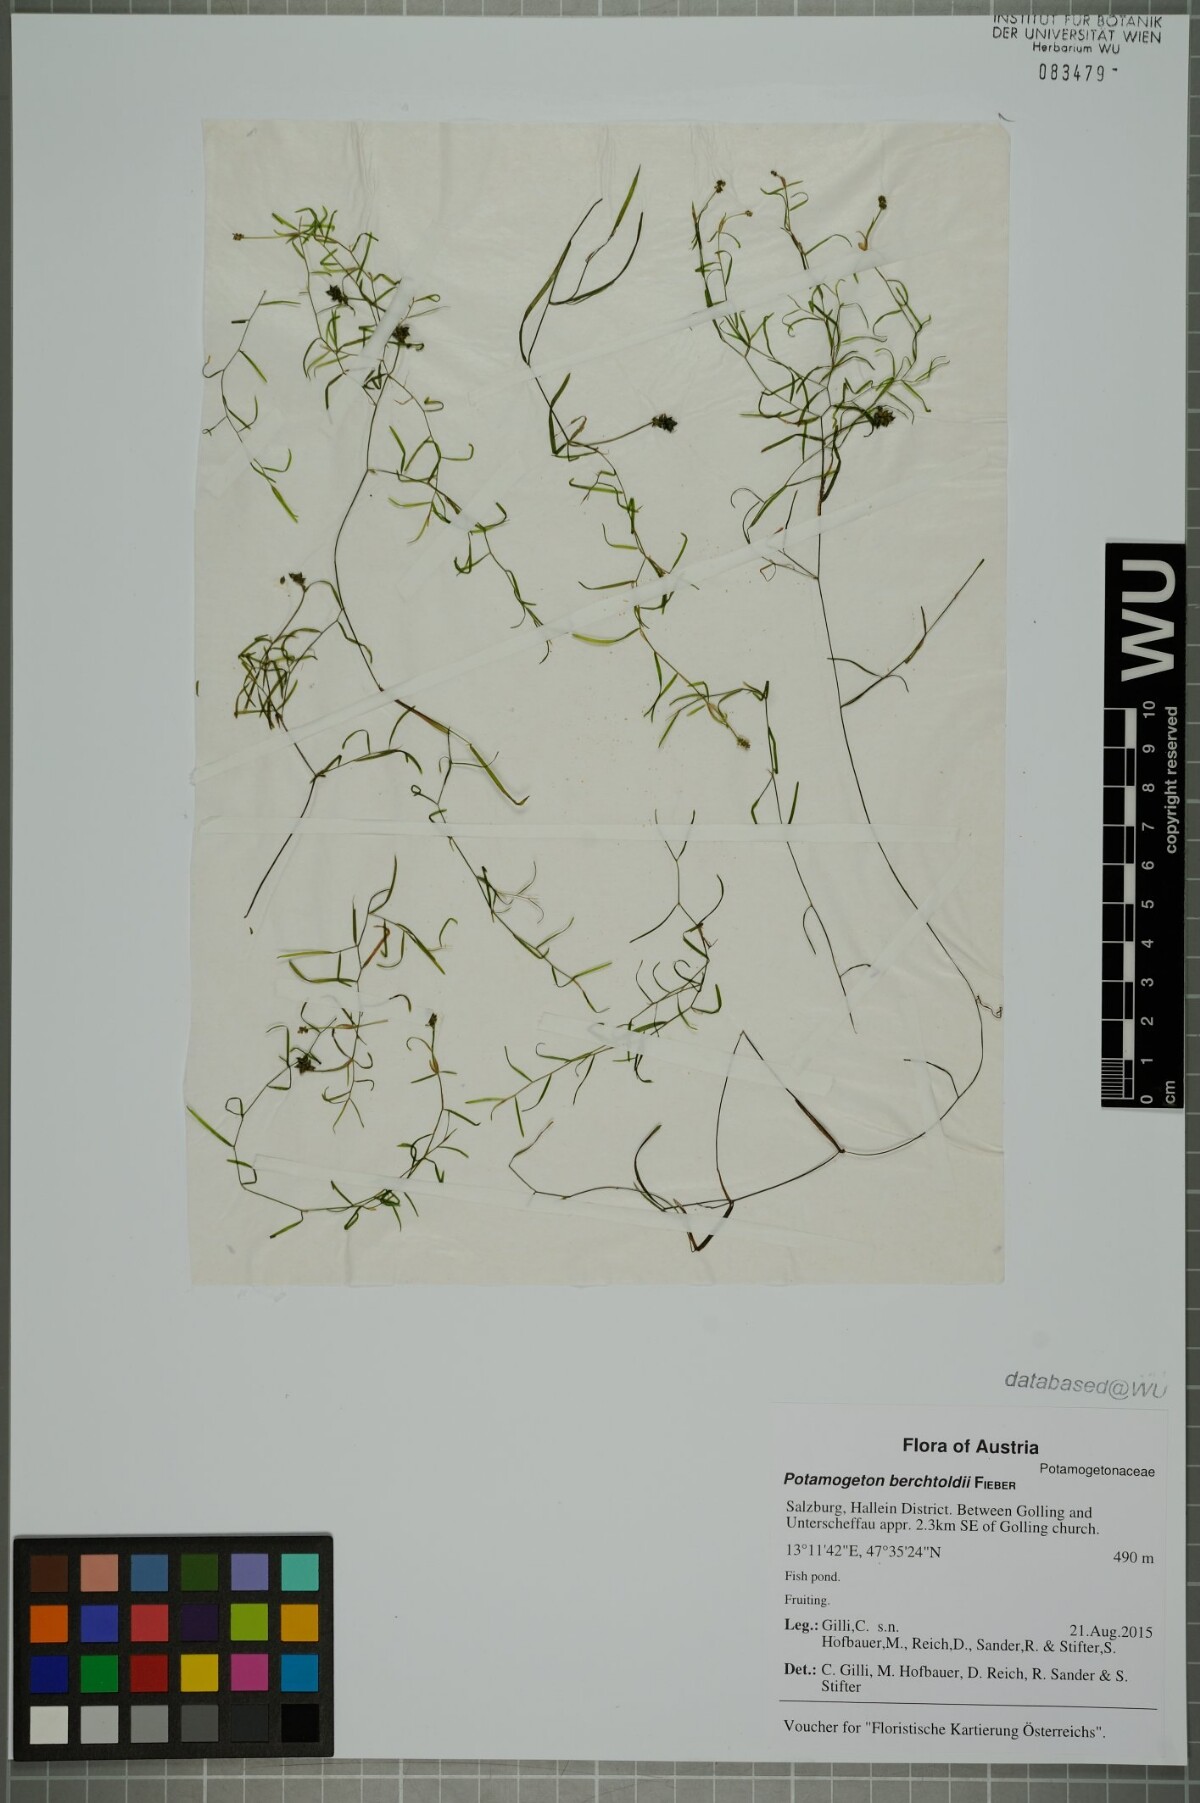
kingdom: Plantae
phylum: Tracheophyta
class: Liliopsida
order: Alismatales
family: Potamogetonaceae
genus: Potamogeton
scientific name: Potamogeton berchtoldii
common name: Small pondweed
